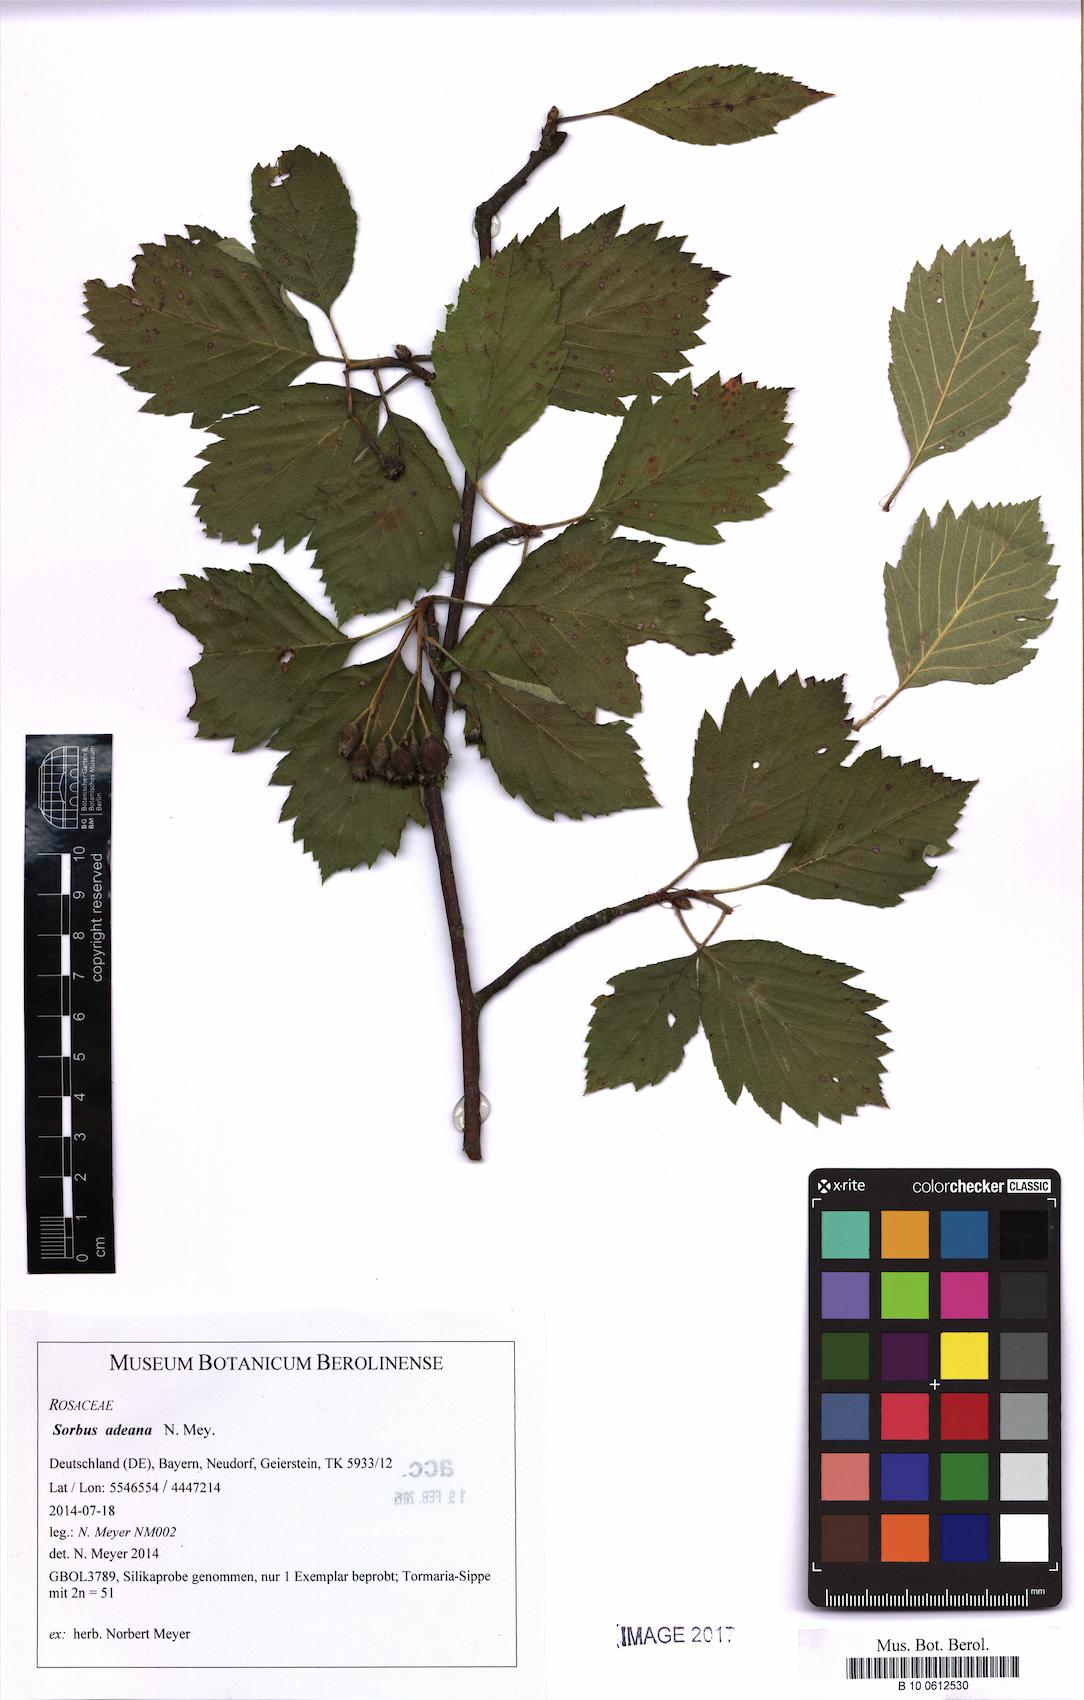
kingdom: Plantae
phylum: Tracheophyta
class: Magnoliopsida
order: Rosales
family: Rosaceae
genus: Karpatiosorbus
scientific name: Karpatiosorbus adeana
